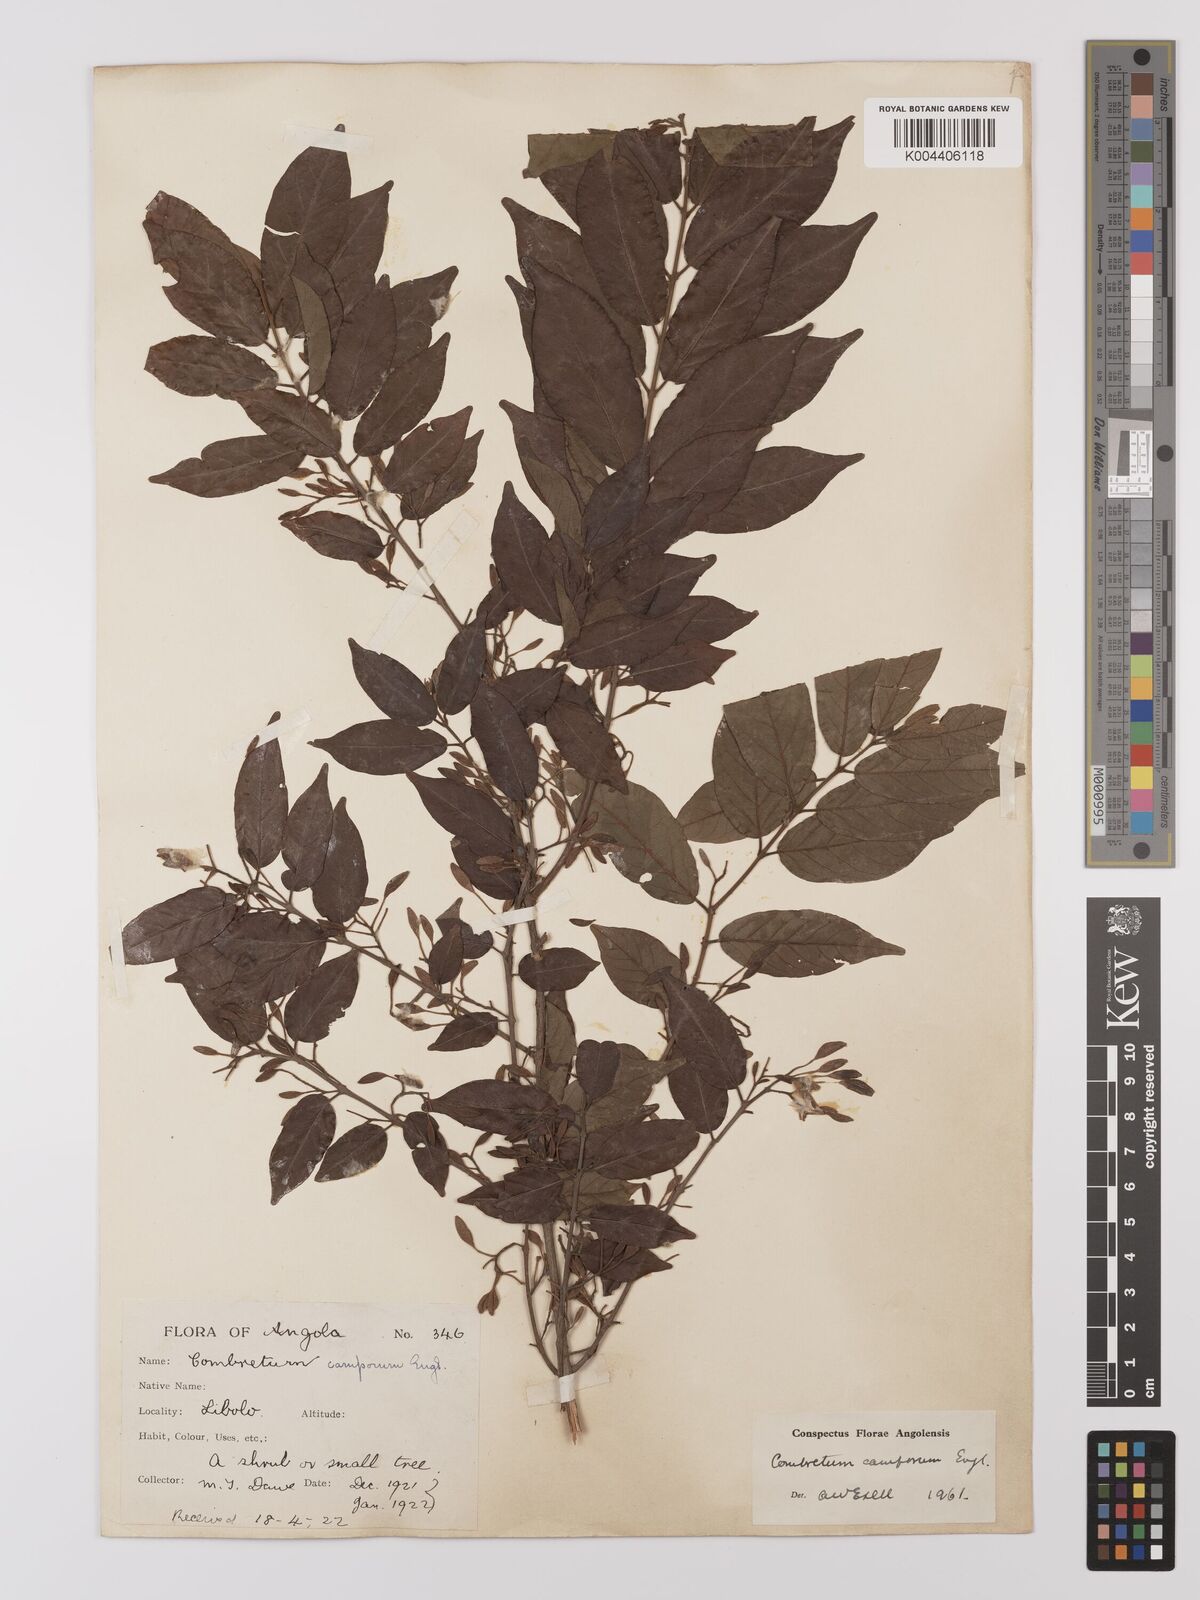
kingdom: Plantae
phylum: Tracheophyta
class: Magnoliopsida
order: Myrtales
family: Combretaceae
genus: Combretum
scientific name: Combretum camporum
